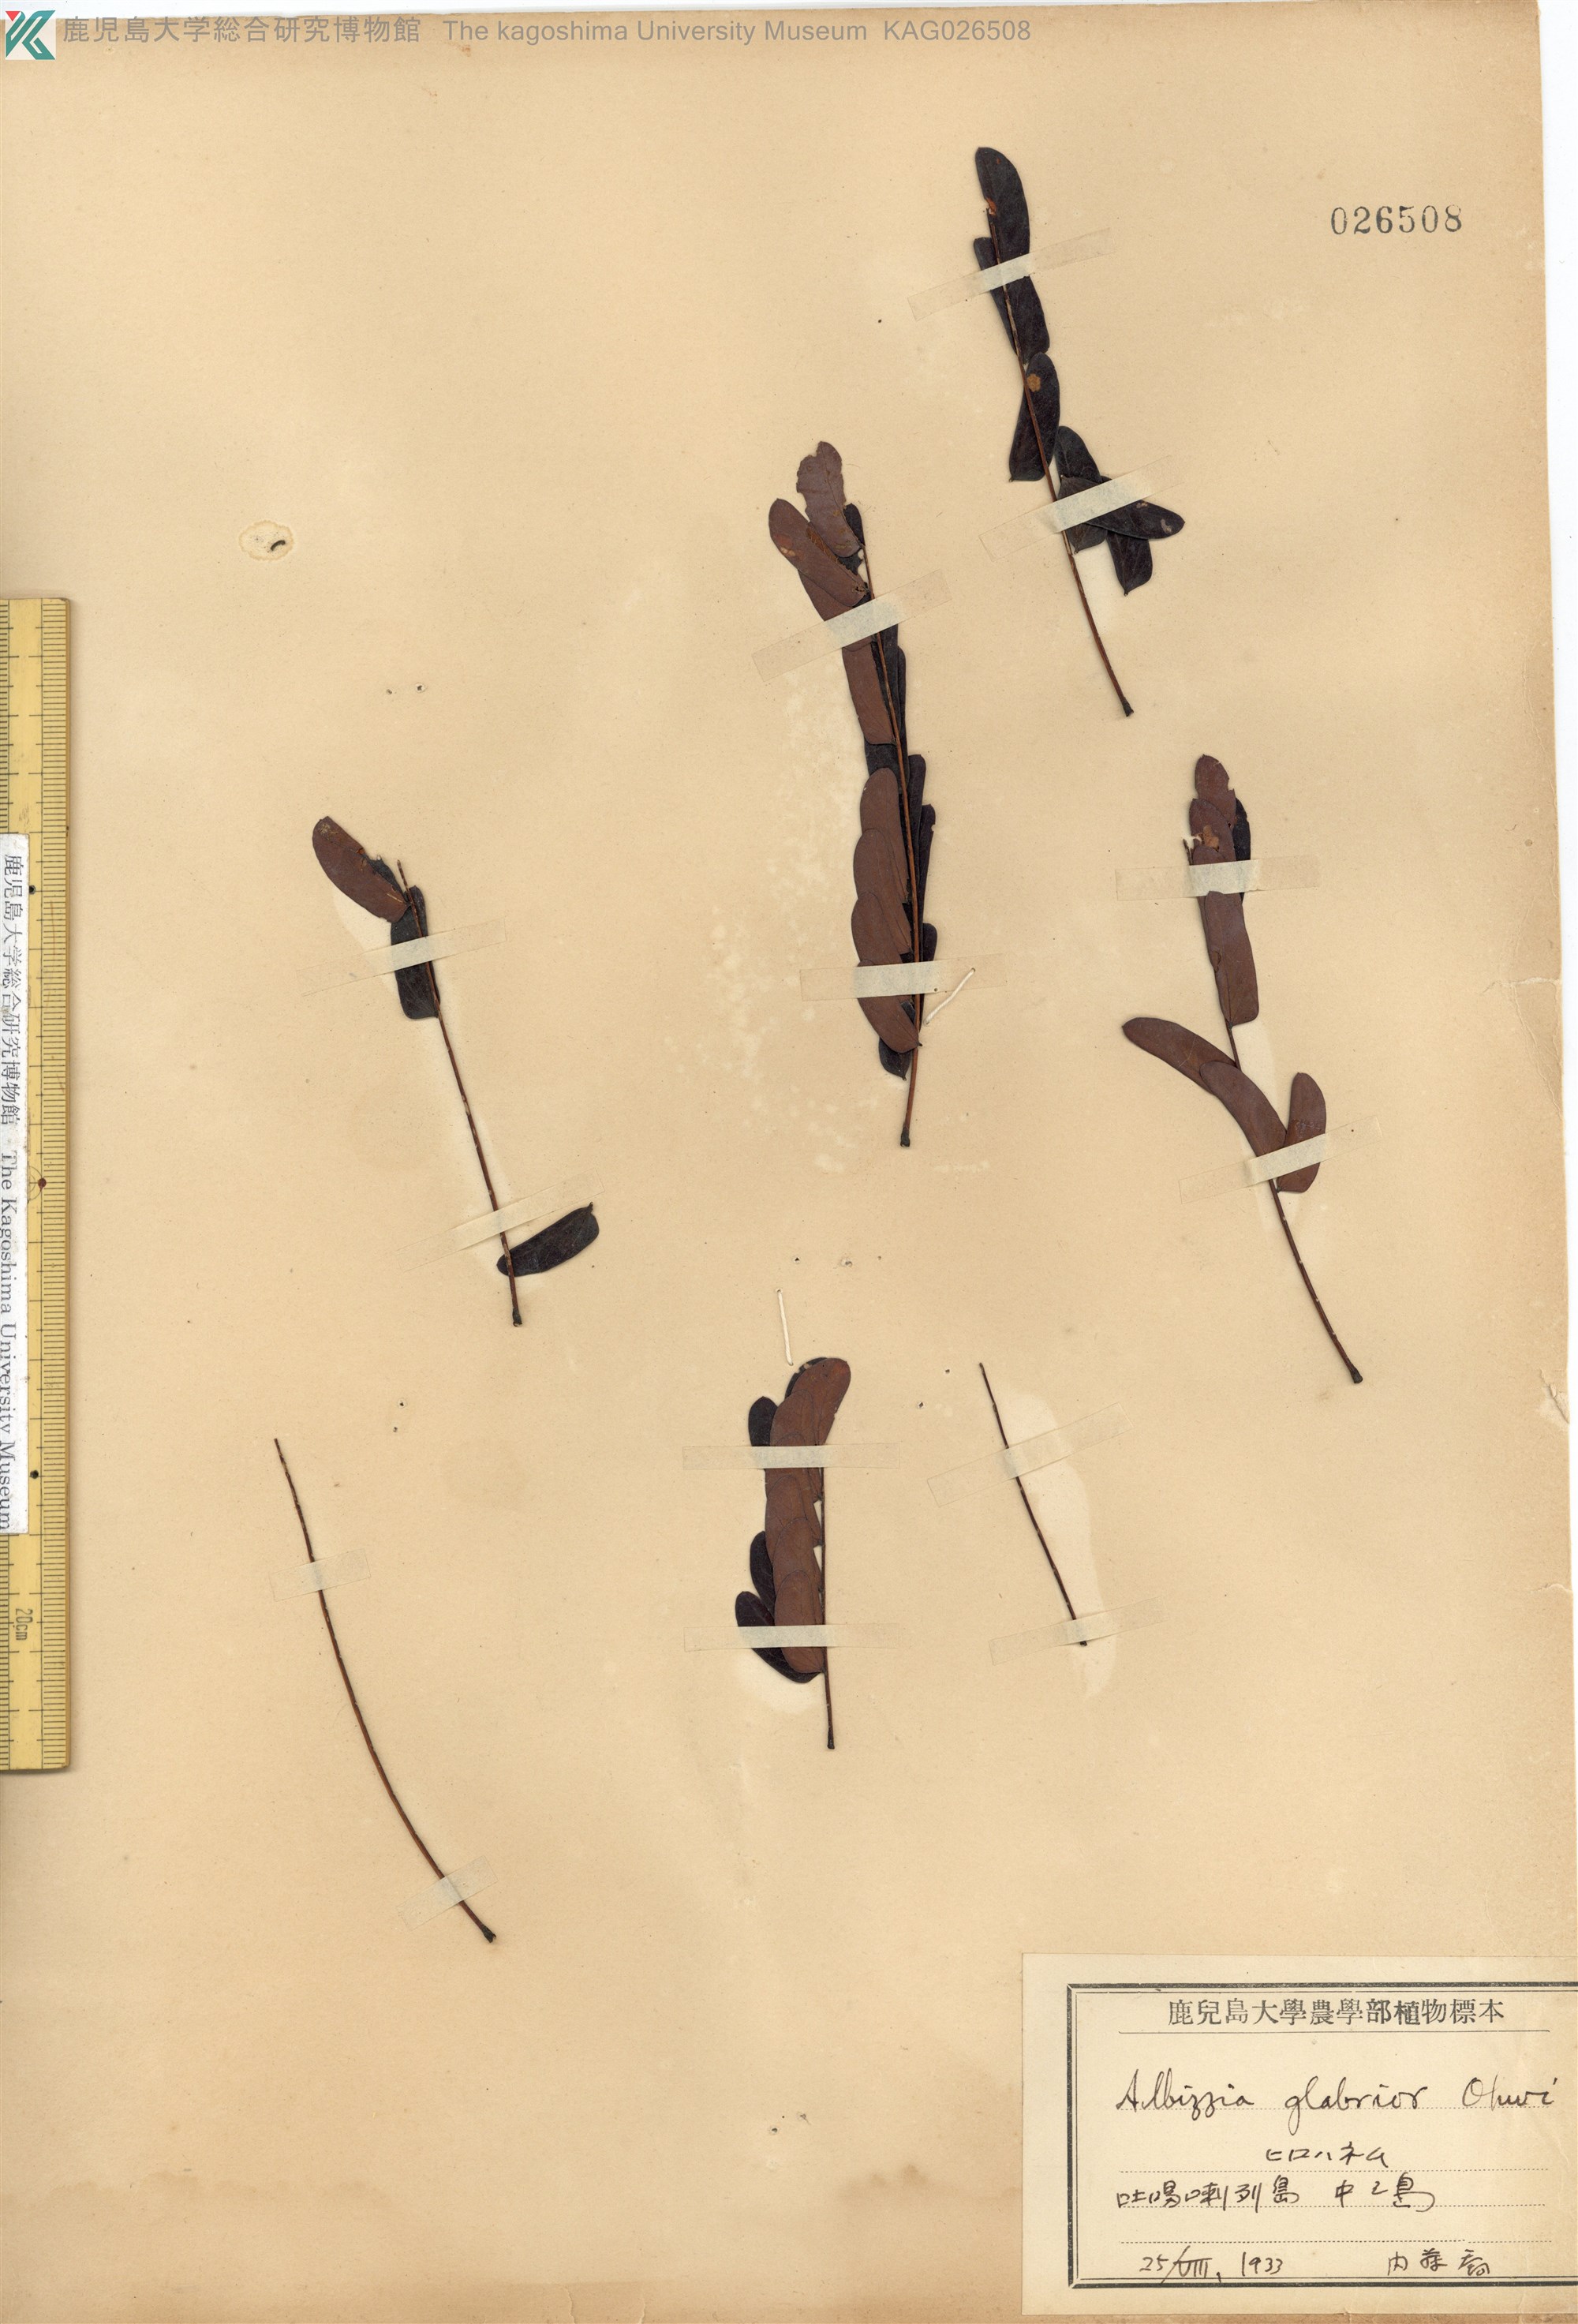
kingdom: Plantae
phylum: Tracheophyta
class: Magnoliopsida
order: Fabales
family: Fabaceae
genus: Albizia
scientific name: Albizia kalkora
